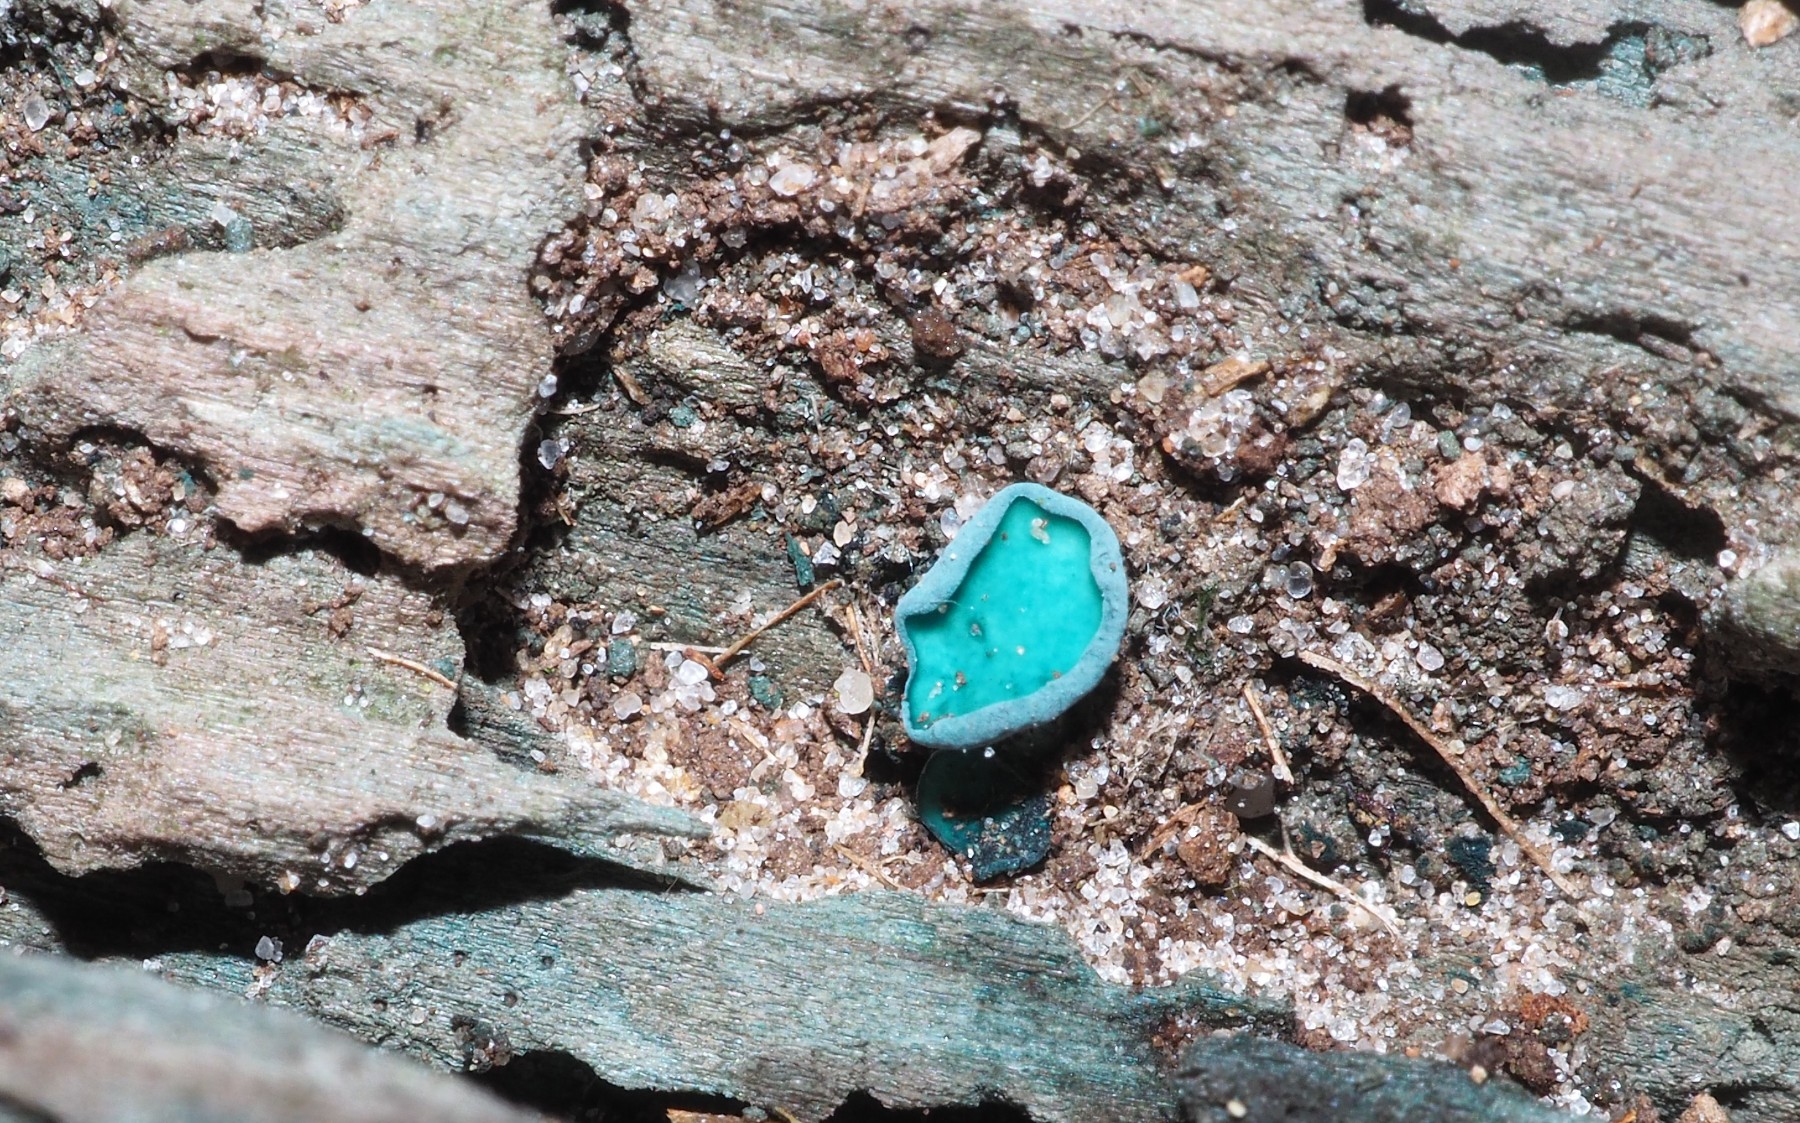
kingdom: Fungi
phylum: Ascomycota
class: Leotiomycetes
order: Helotiales
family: Chlorociboriaceae
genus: Chlorociboria
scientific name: Chlorociboria aeruginascens
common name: almindelig grønskive
